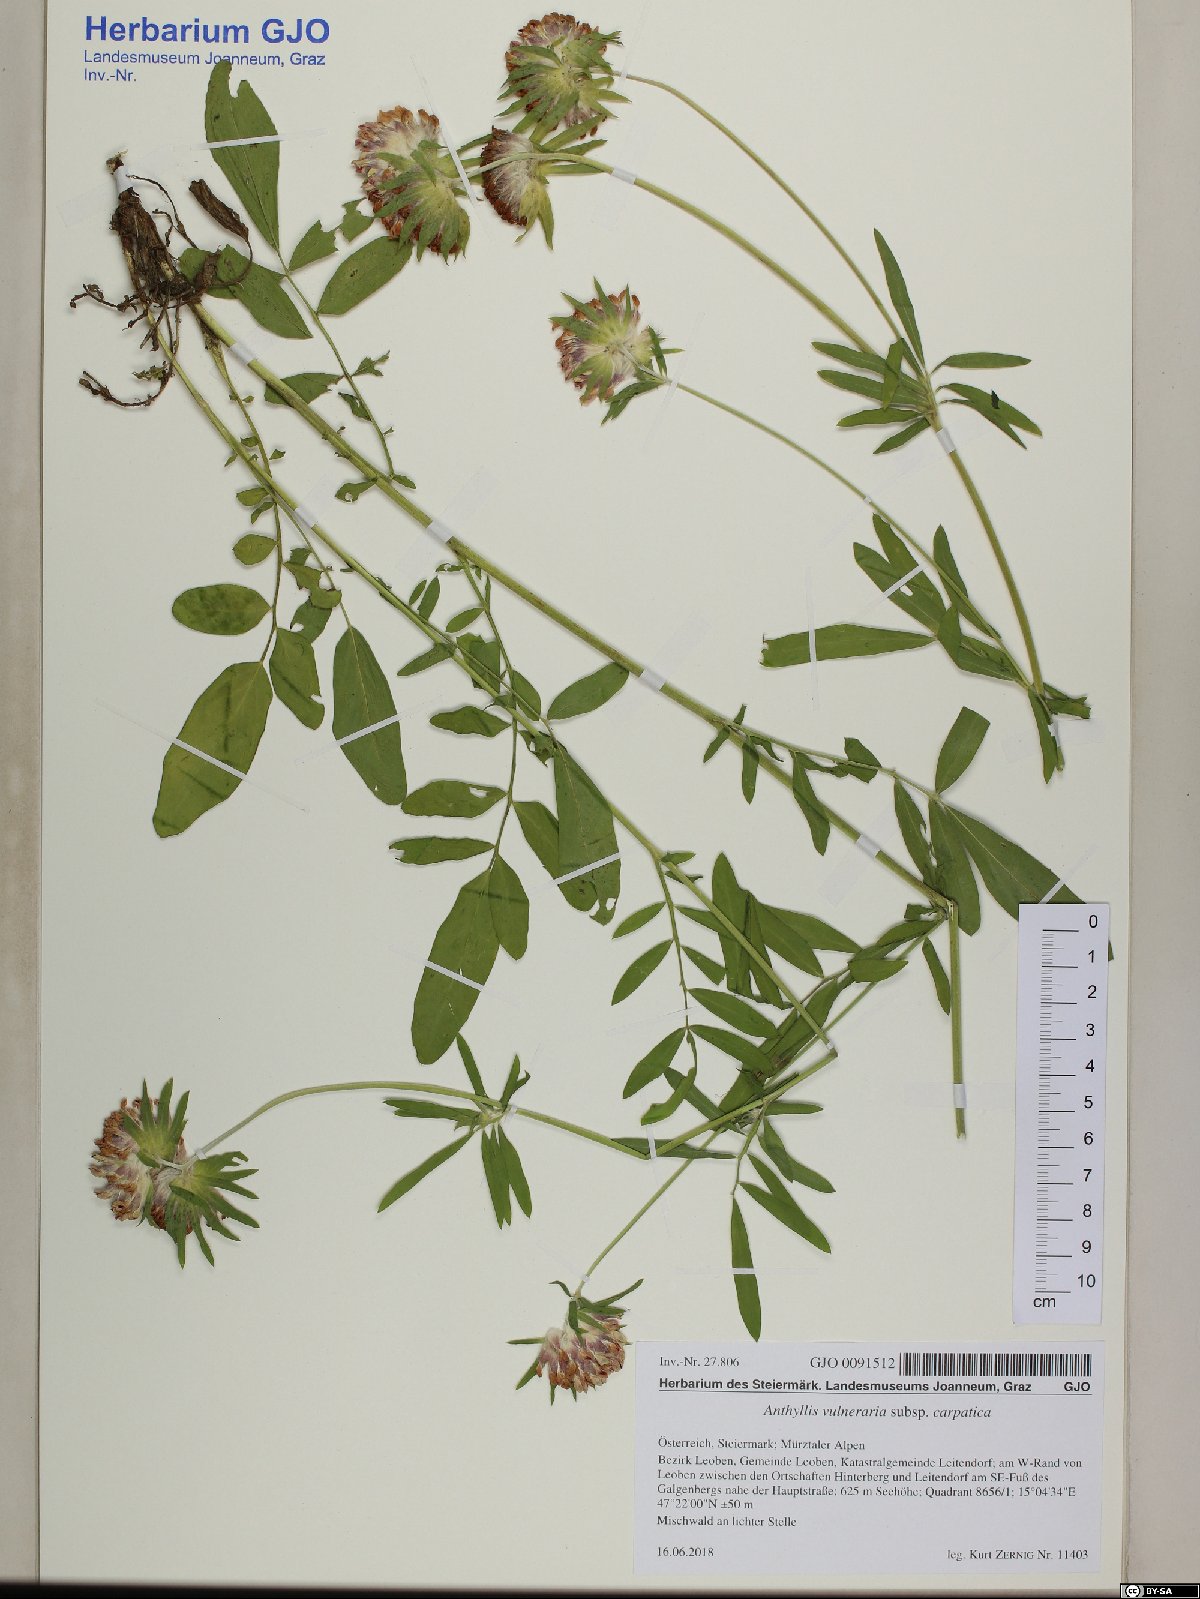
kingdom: Plantae
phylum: Tracheophyta
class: Magnoliopsida
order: Fabales
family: Fabaceae
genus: Anthyllis
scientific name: Anthyllis vulneraria
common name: Kidney vetch
